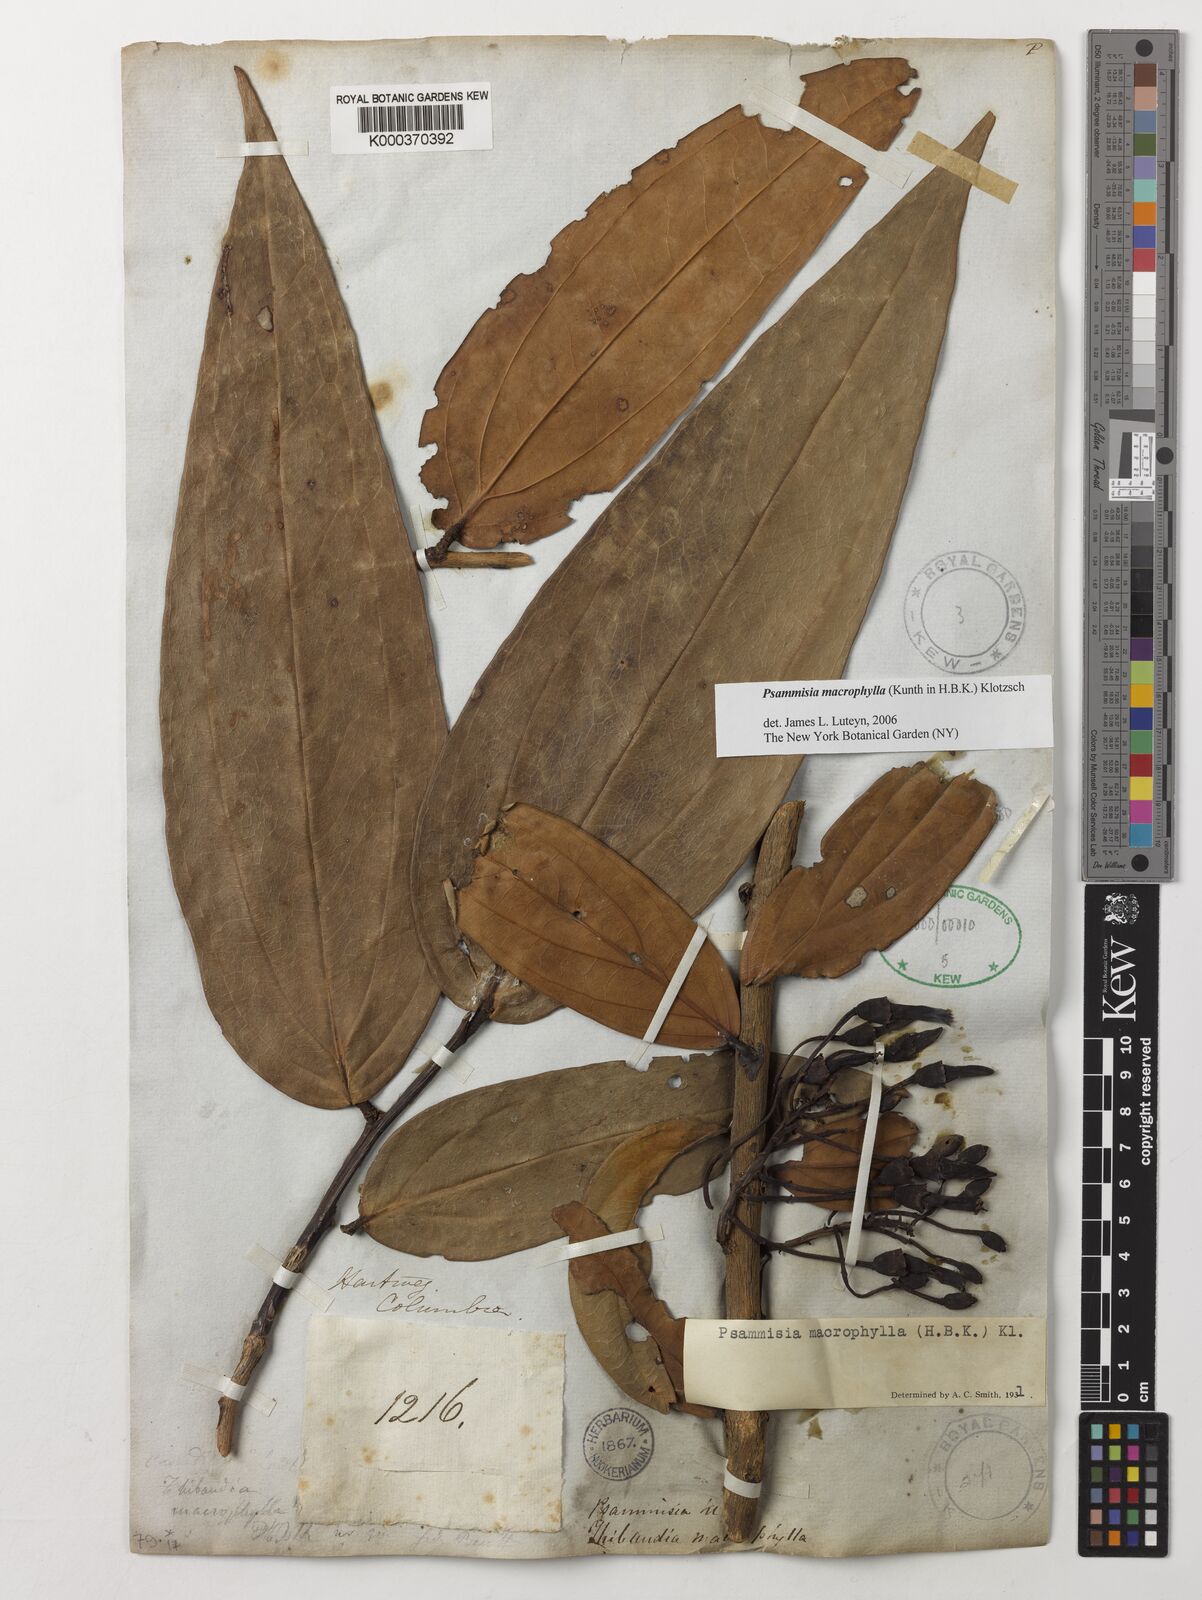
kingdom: Plantae
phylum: Tracheophyta
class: Magnoliopsida
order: Ericales
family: Ericaceae
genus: Psammisia
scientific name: Psammisia macrophylla
